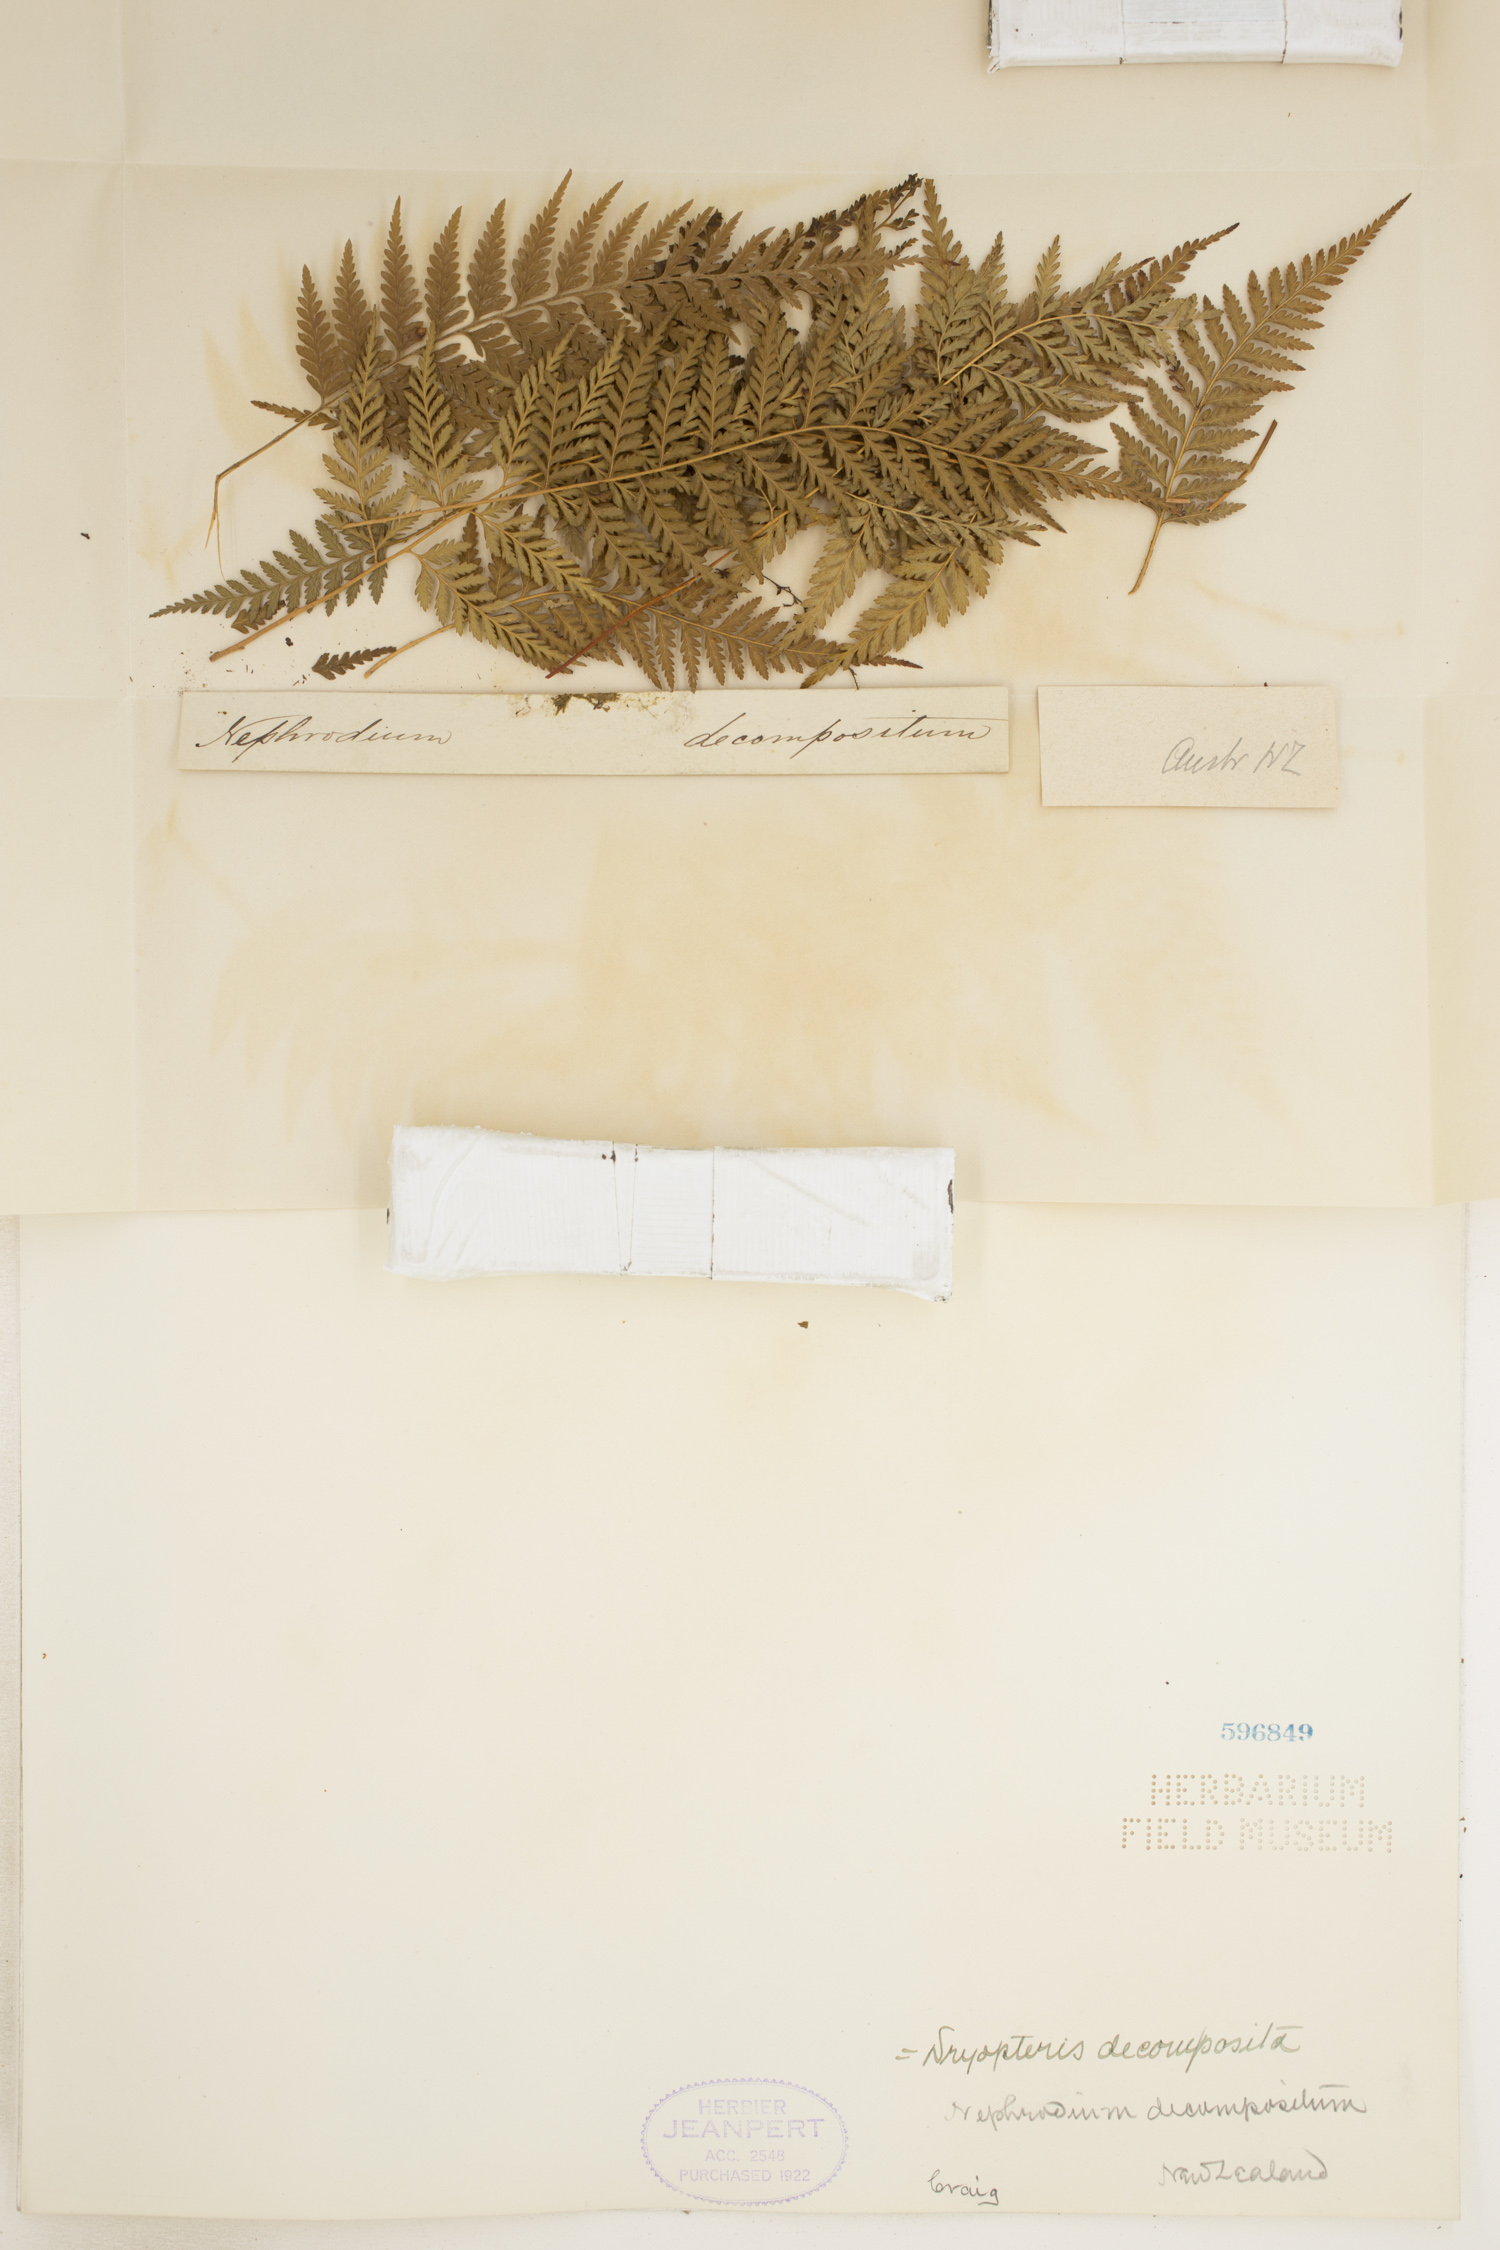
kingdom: Plantae
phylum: Tracheophyta
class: Polypodiopsida
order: Polypodiales
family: Dryopteridaceae
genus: Lastreopsis
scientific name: Lastreopsis decomposita
